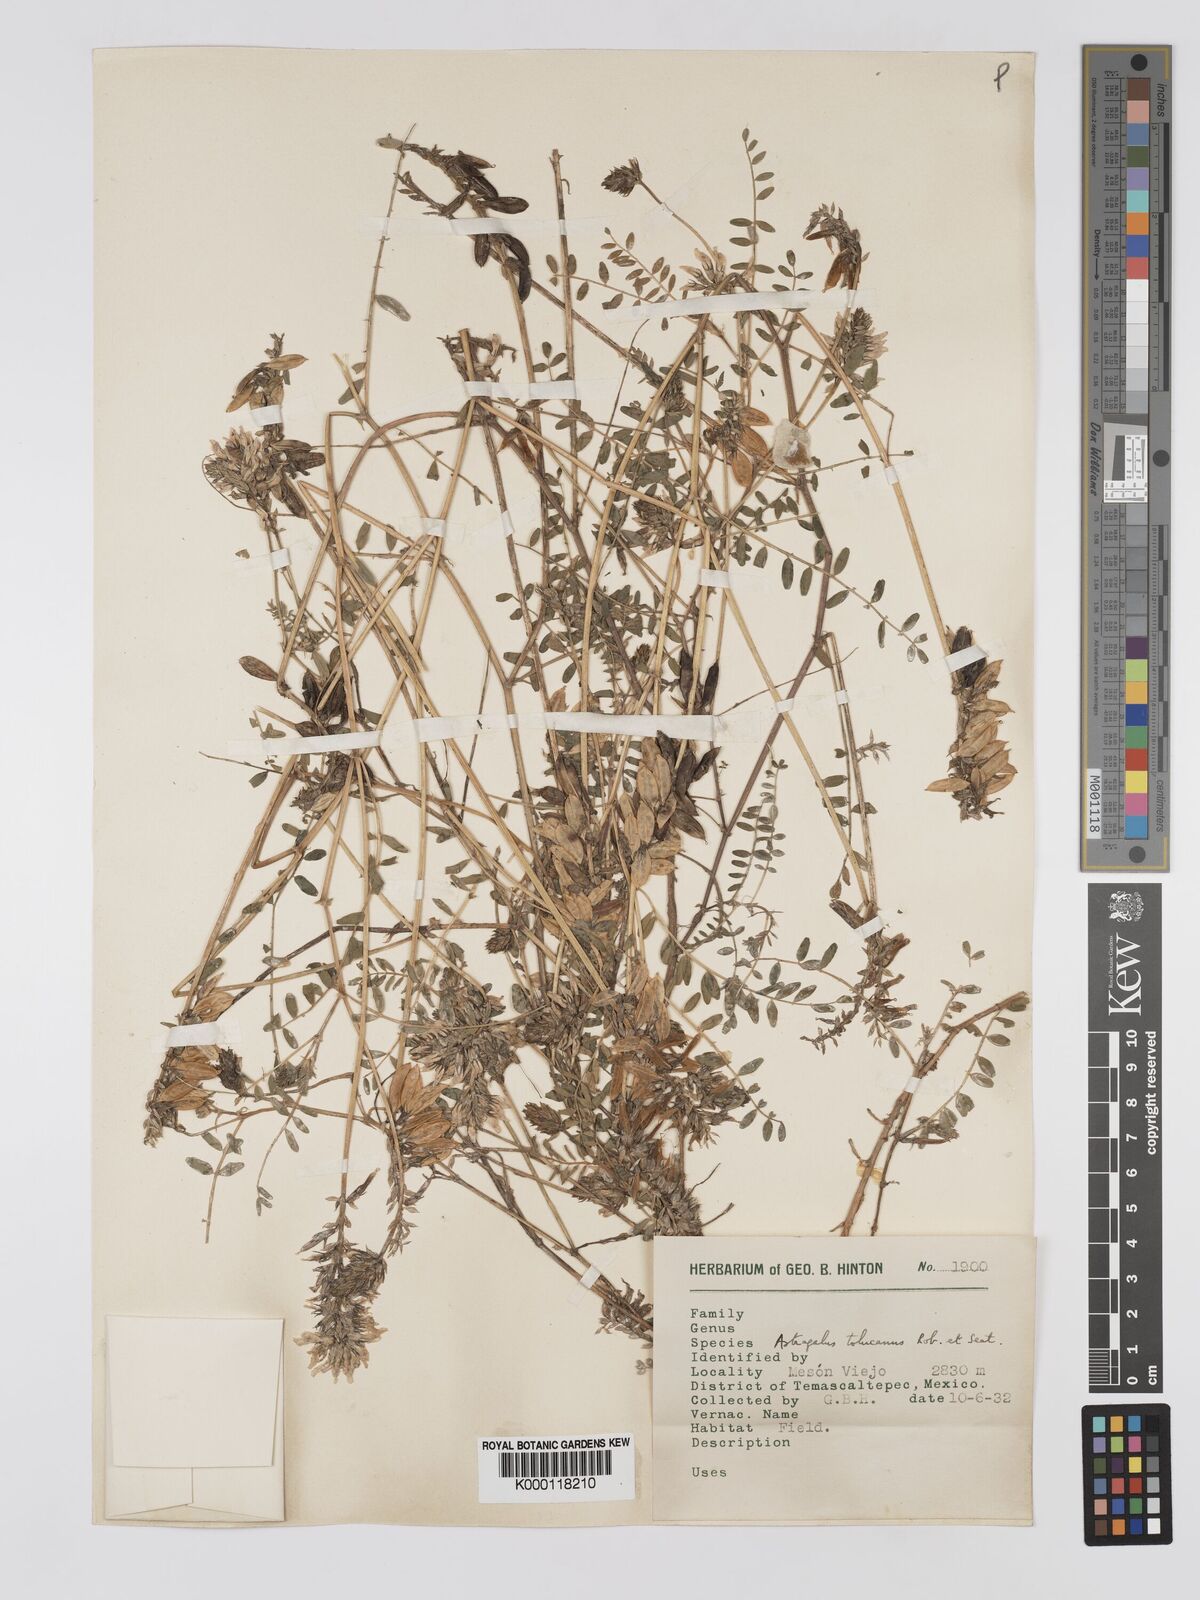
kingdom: Plantae
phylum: Tracheophyta
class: Magnoliopsida
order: Fabales
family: Fabaceae
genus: Astragalus
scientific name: Astragalus tolucanus
